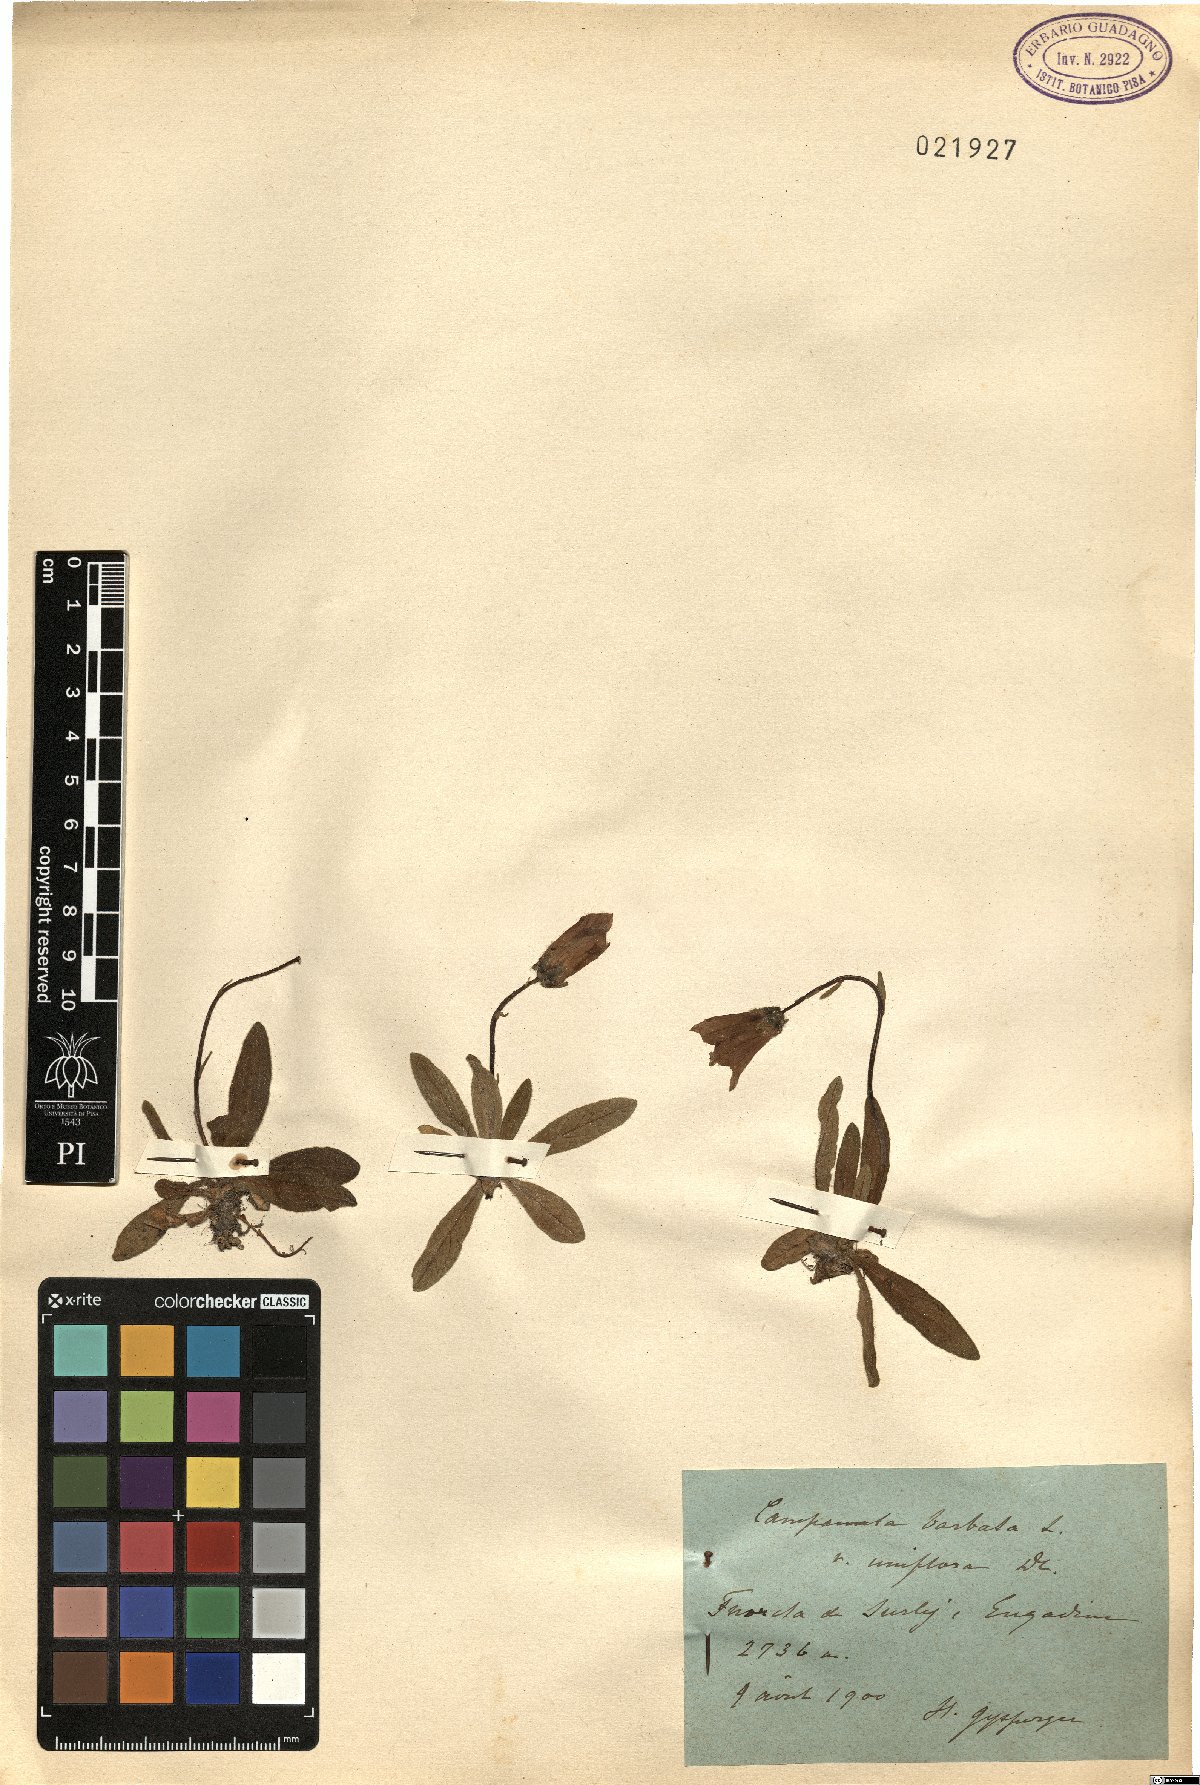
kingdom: Plantae
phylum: Tracheophyta
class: Magnoliopsida
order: Asterales
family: Campanulaceae
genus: Campanula
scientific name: Campanula barbata
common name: Bearded bellflower
